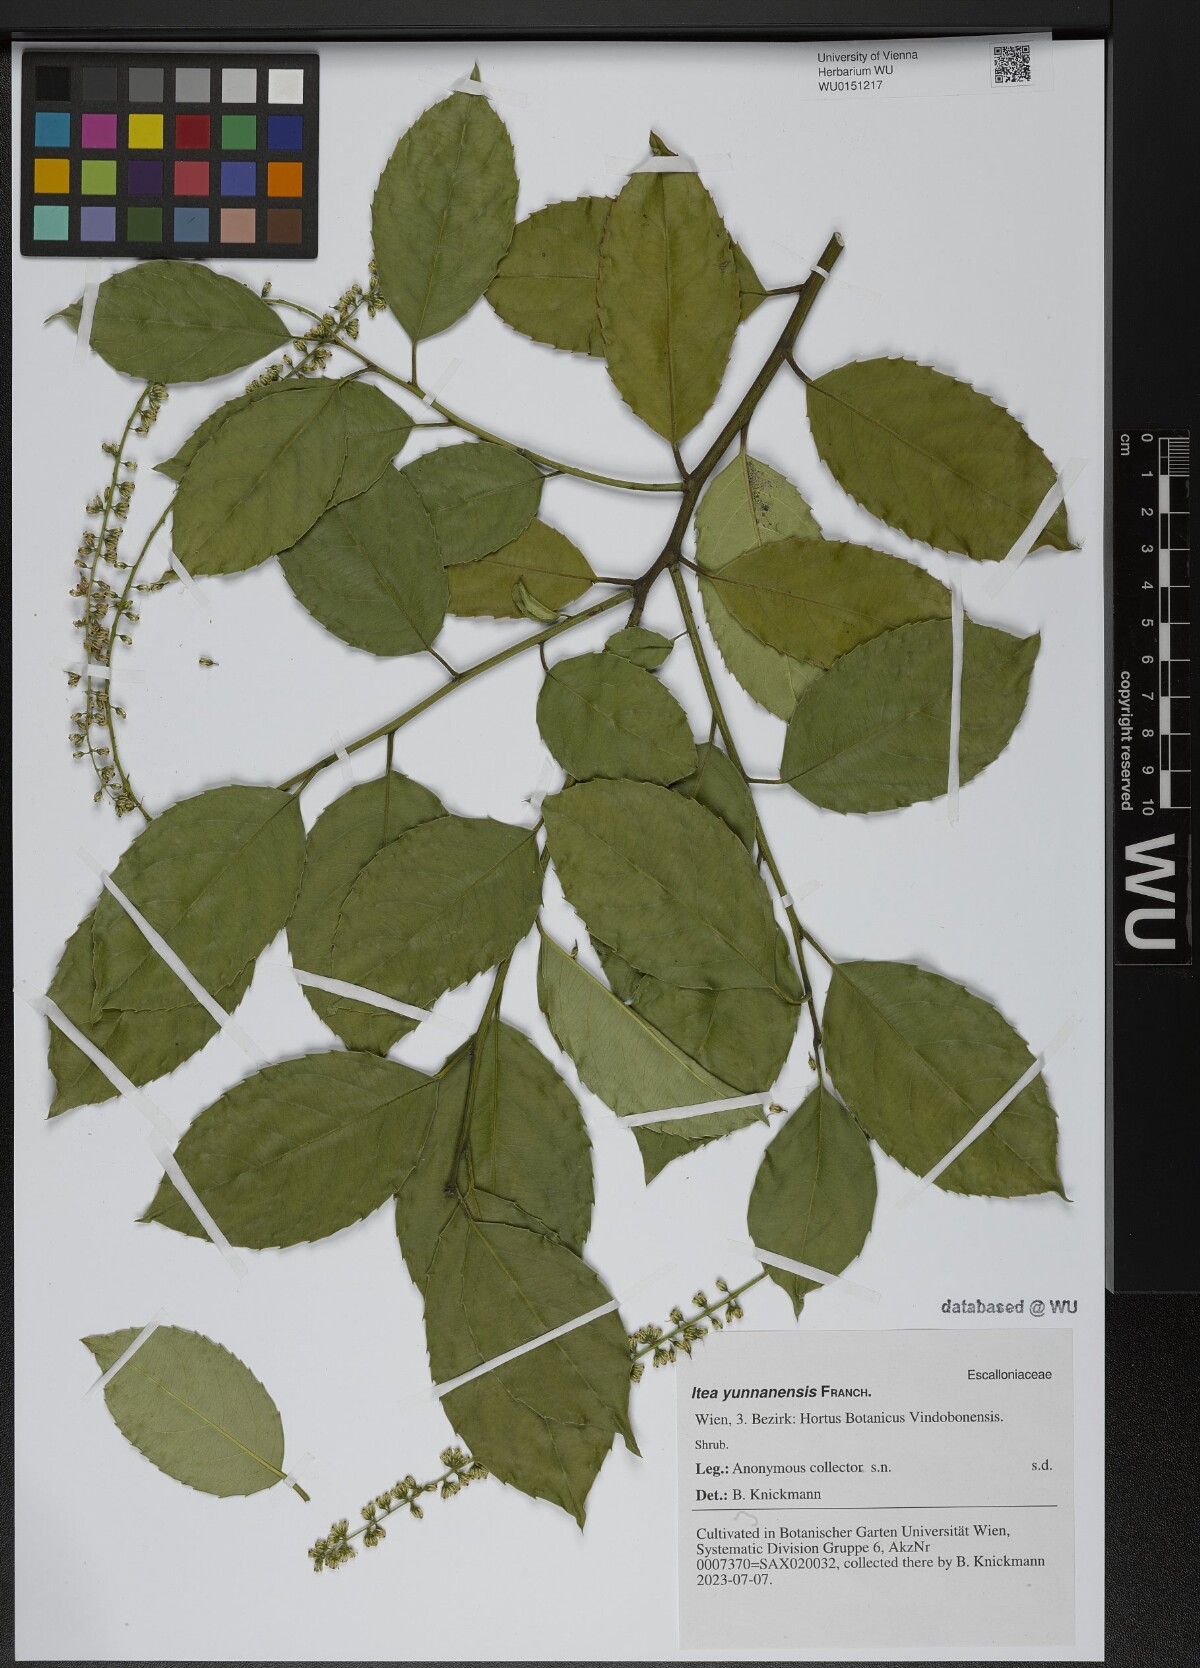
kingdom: Plantae
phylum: Tracheophyta
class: Magnoliopsida
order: Saxifragales
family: Iteaceae
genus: Itea
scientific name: Itea yunnanensis
